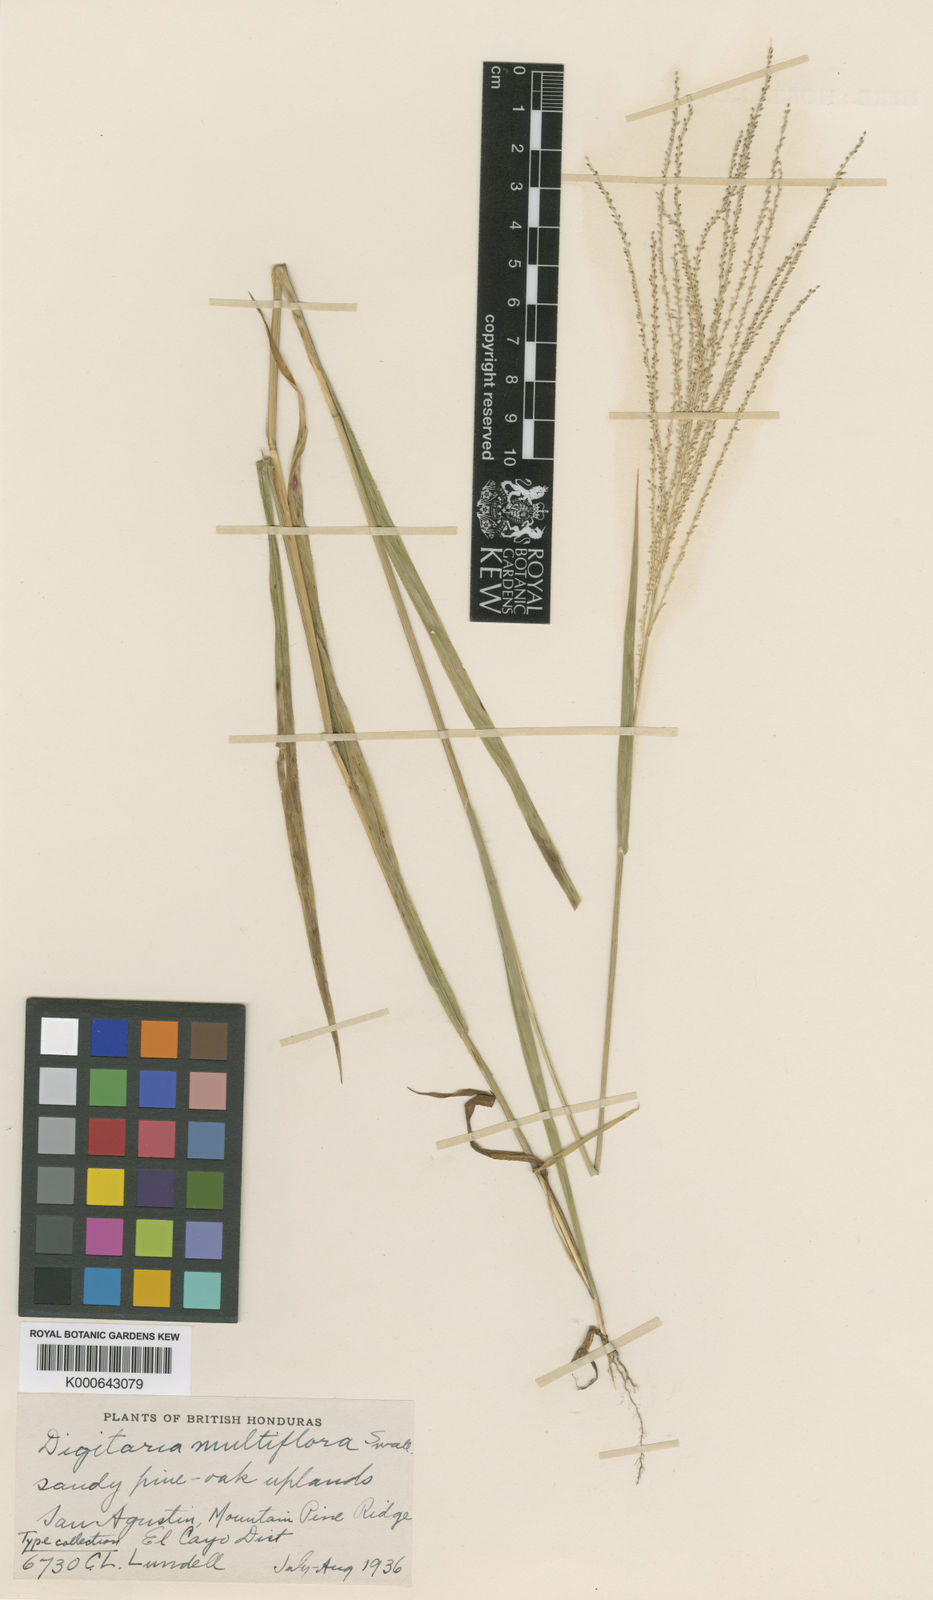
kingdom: Plantae
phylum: Tracheophyta
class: Liliopsida
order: Poales
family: Poaceae
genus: Digitaria
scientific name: Digitaria multiflora
